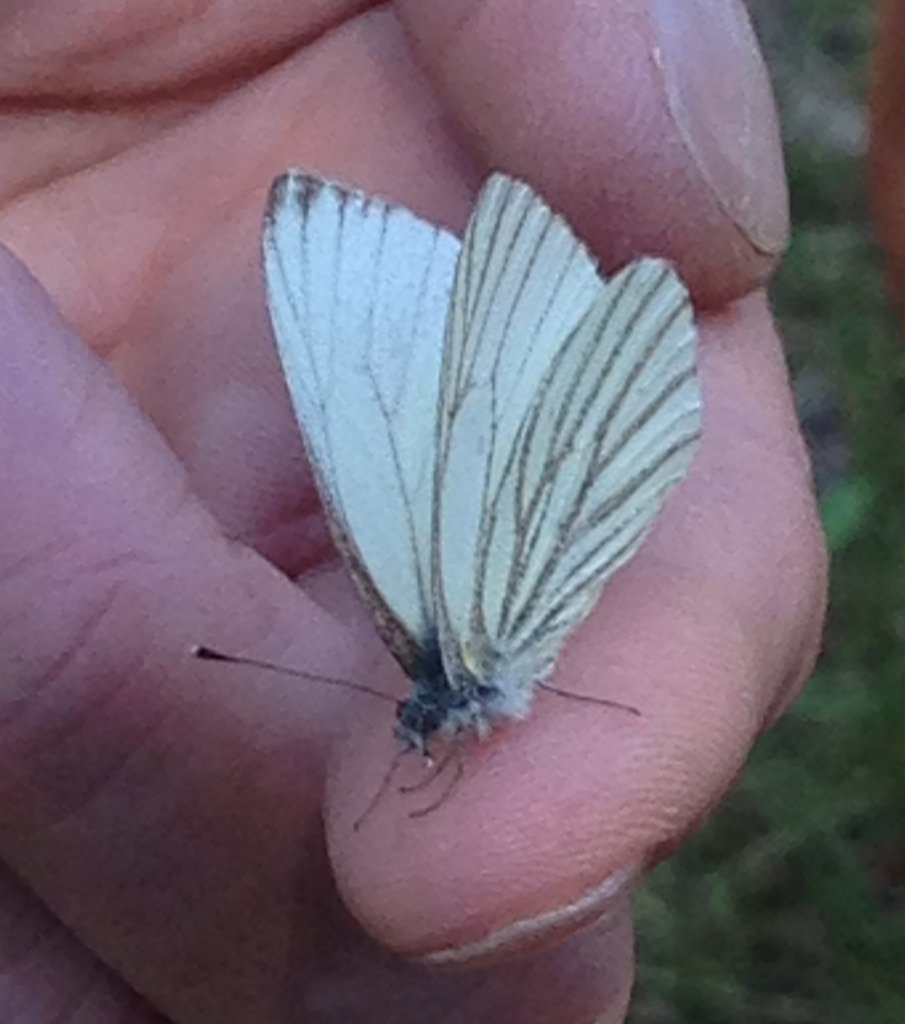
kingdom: Animalia
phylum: Arthropoda
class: Insecta
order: Lepidoptera
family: Pieridae
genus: Pieris
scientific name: Pieris marginalis
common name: Margined White
